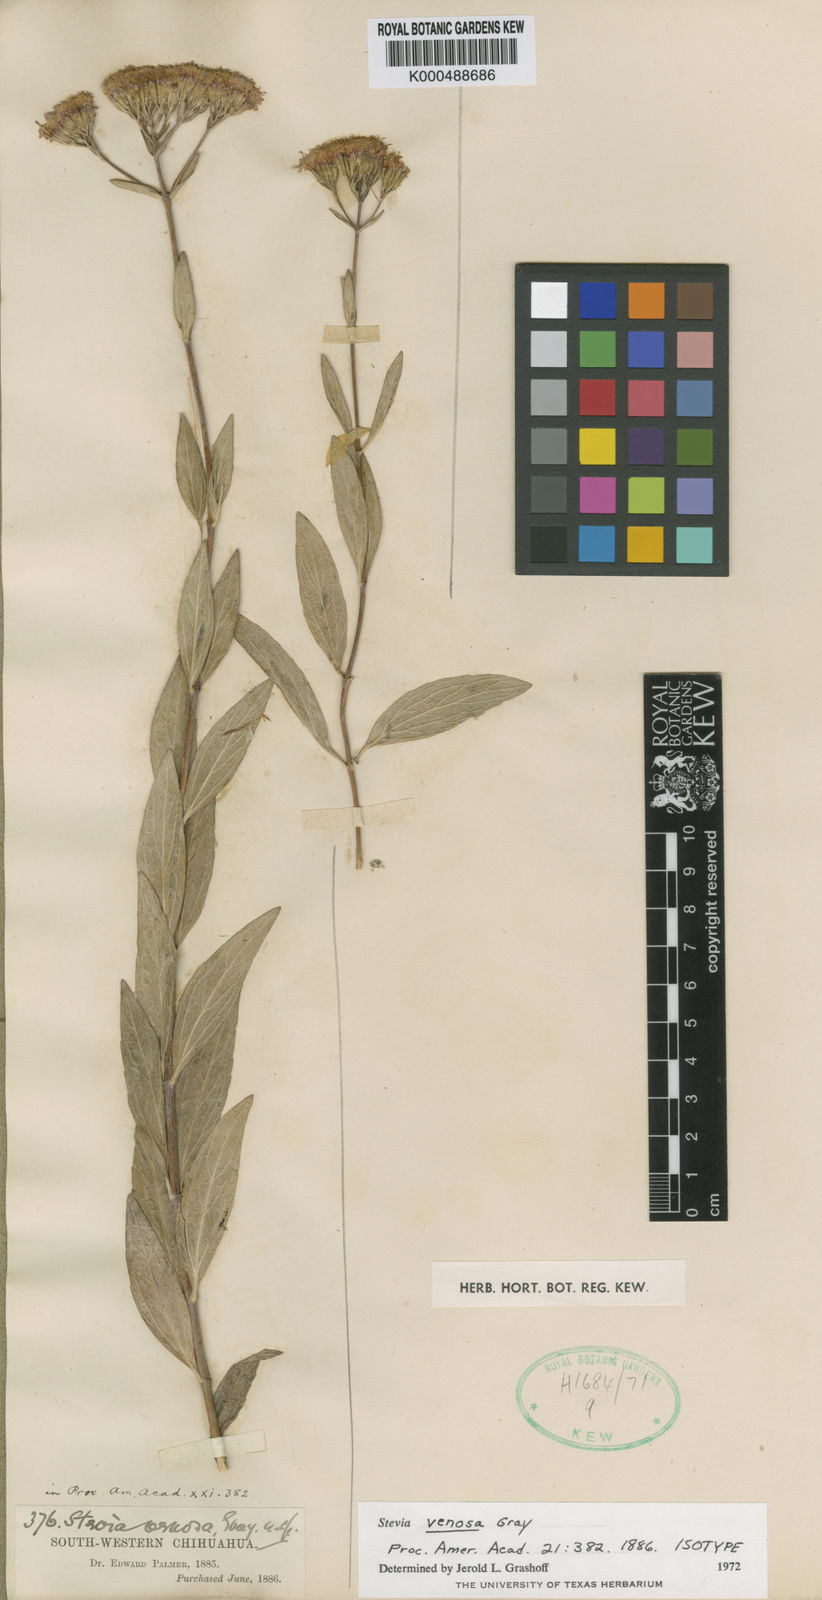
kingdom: Plantae
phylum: Tracheophyta
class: Magnoliopsida
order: Asterales
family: Asteraceae
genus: Stevia
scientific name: Stevia scabrella
